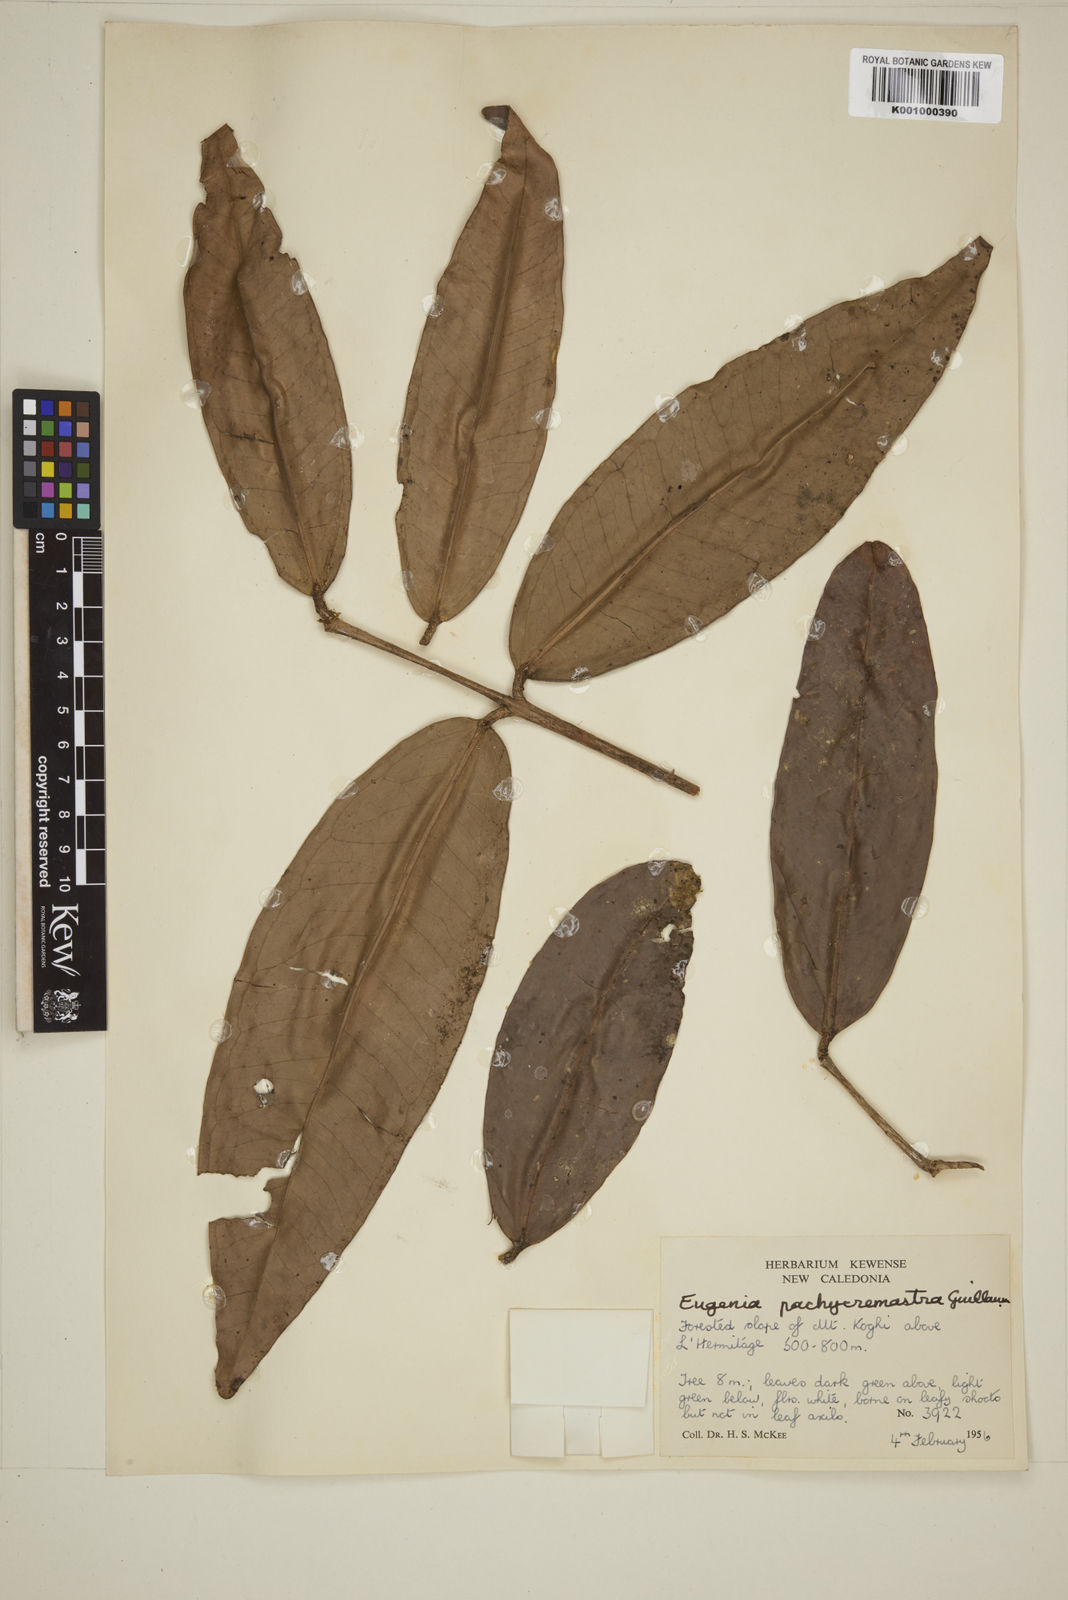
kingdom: Plantae
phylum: Tracheophyta
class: Magnoliopsida
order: Myrtales
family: Myrtaceae
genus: Eugenia
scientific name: Eugenia pachychremastra
